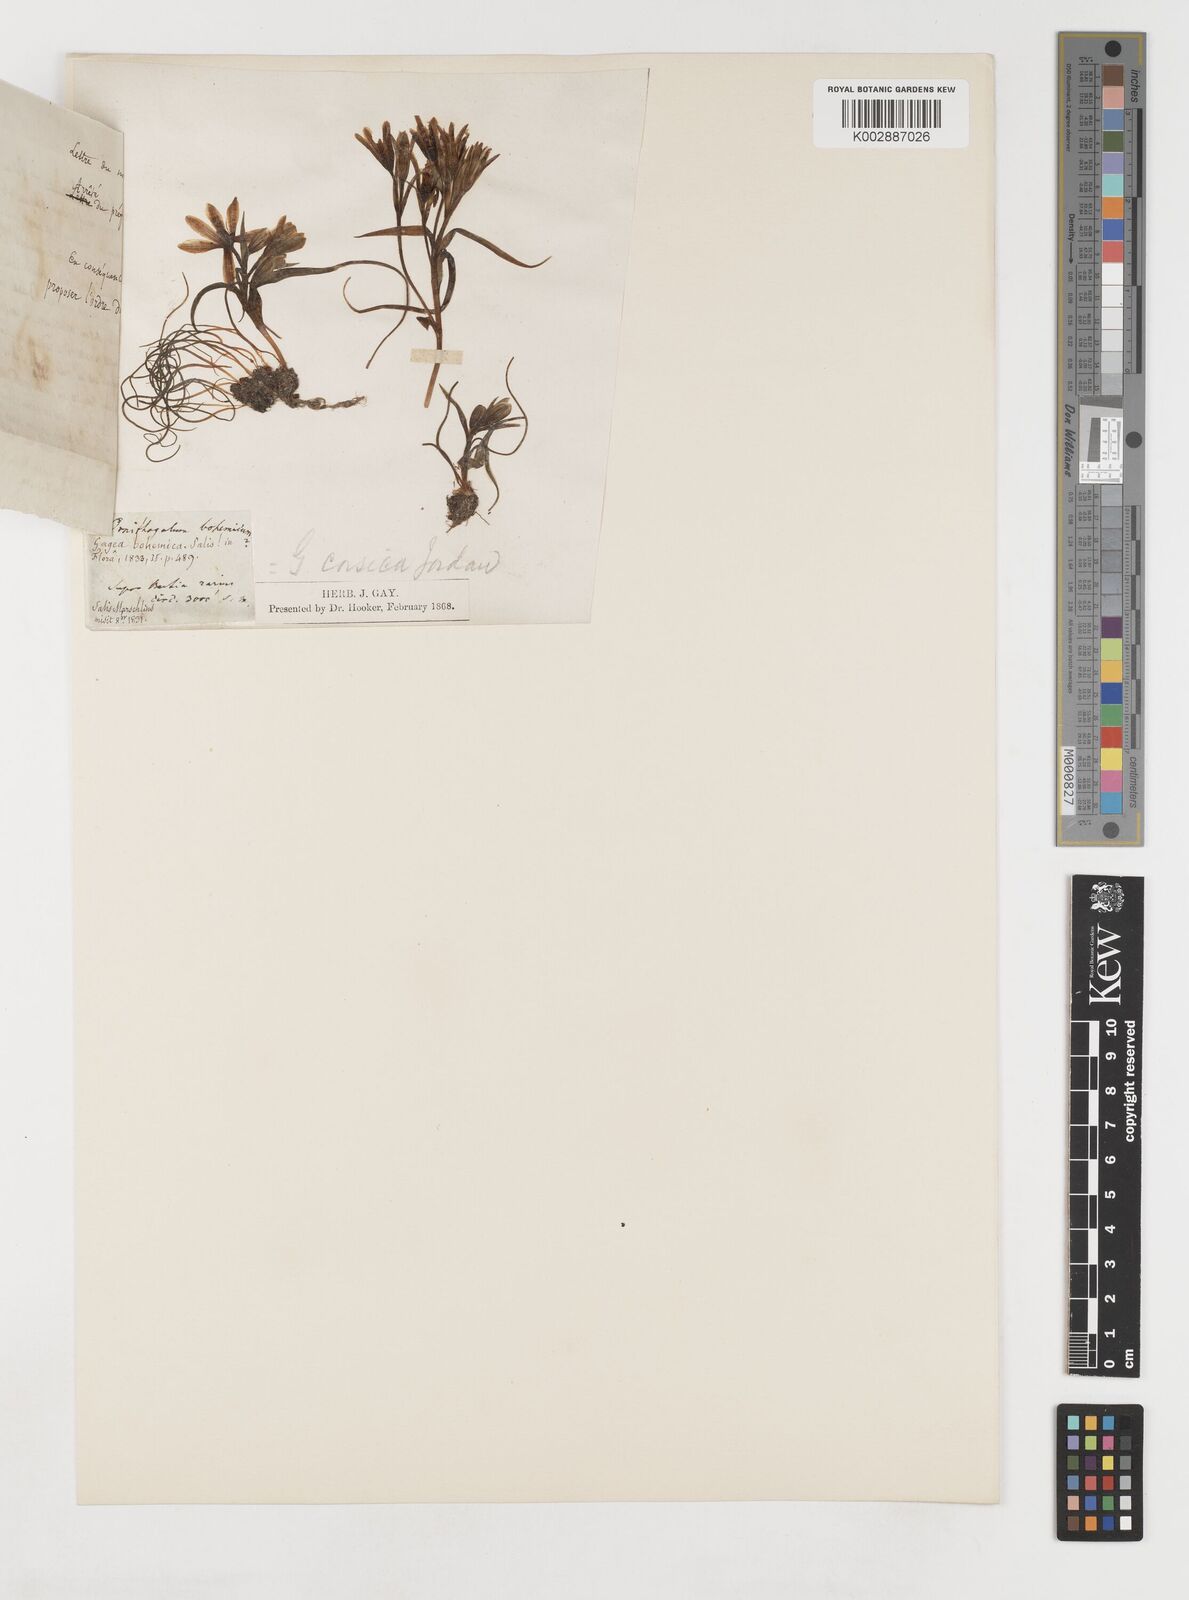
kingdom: Plantae
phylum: Tracheophyta
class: Liliopsida
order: Liliales
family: Liliaceae
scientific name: Liliaceae
